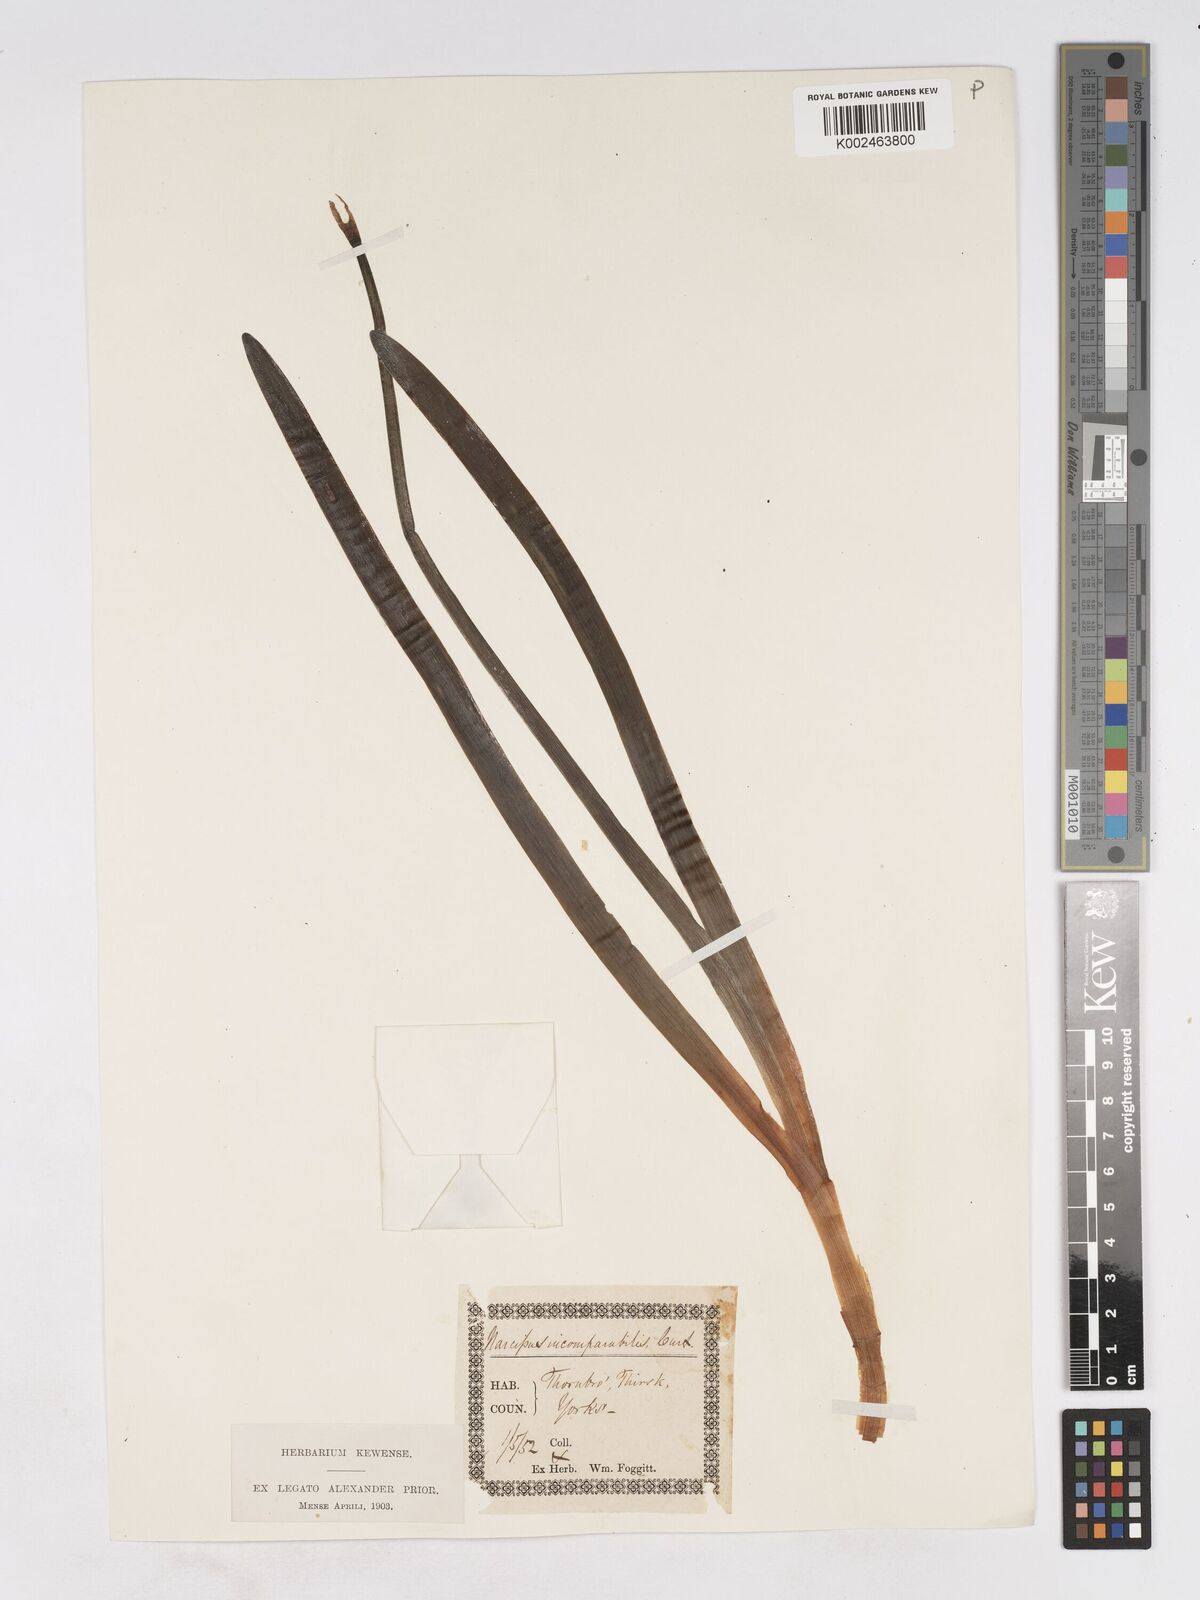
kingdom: Plantae
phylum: Tracheophyta
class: Liliopsida
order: Asparagales
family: Amaryllidaceae
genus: Narcissus
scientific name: Narcissus incomparabilis
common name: Nonesuch daffodil
